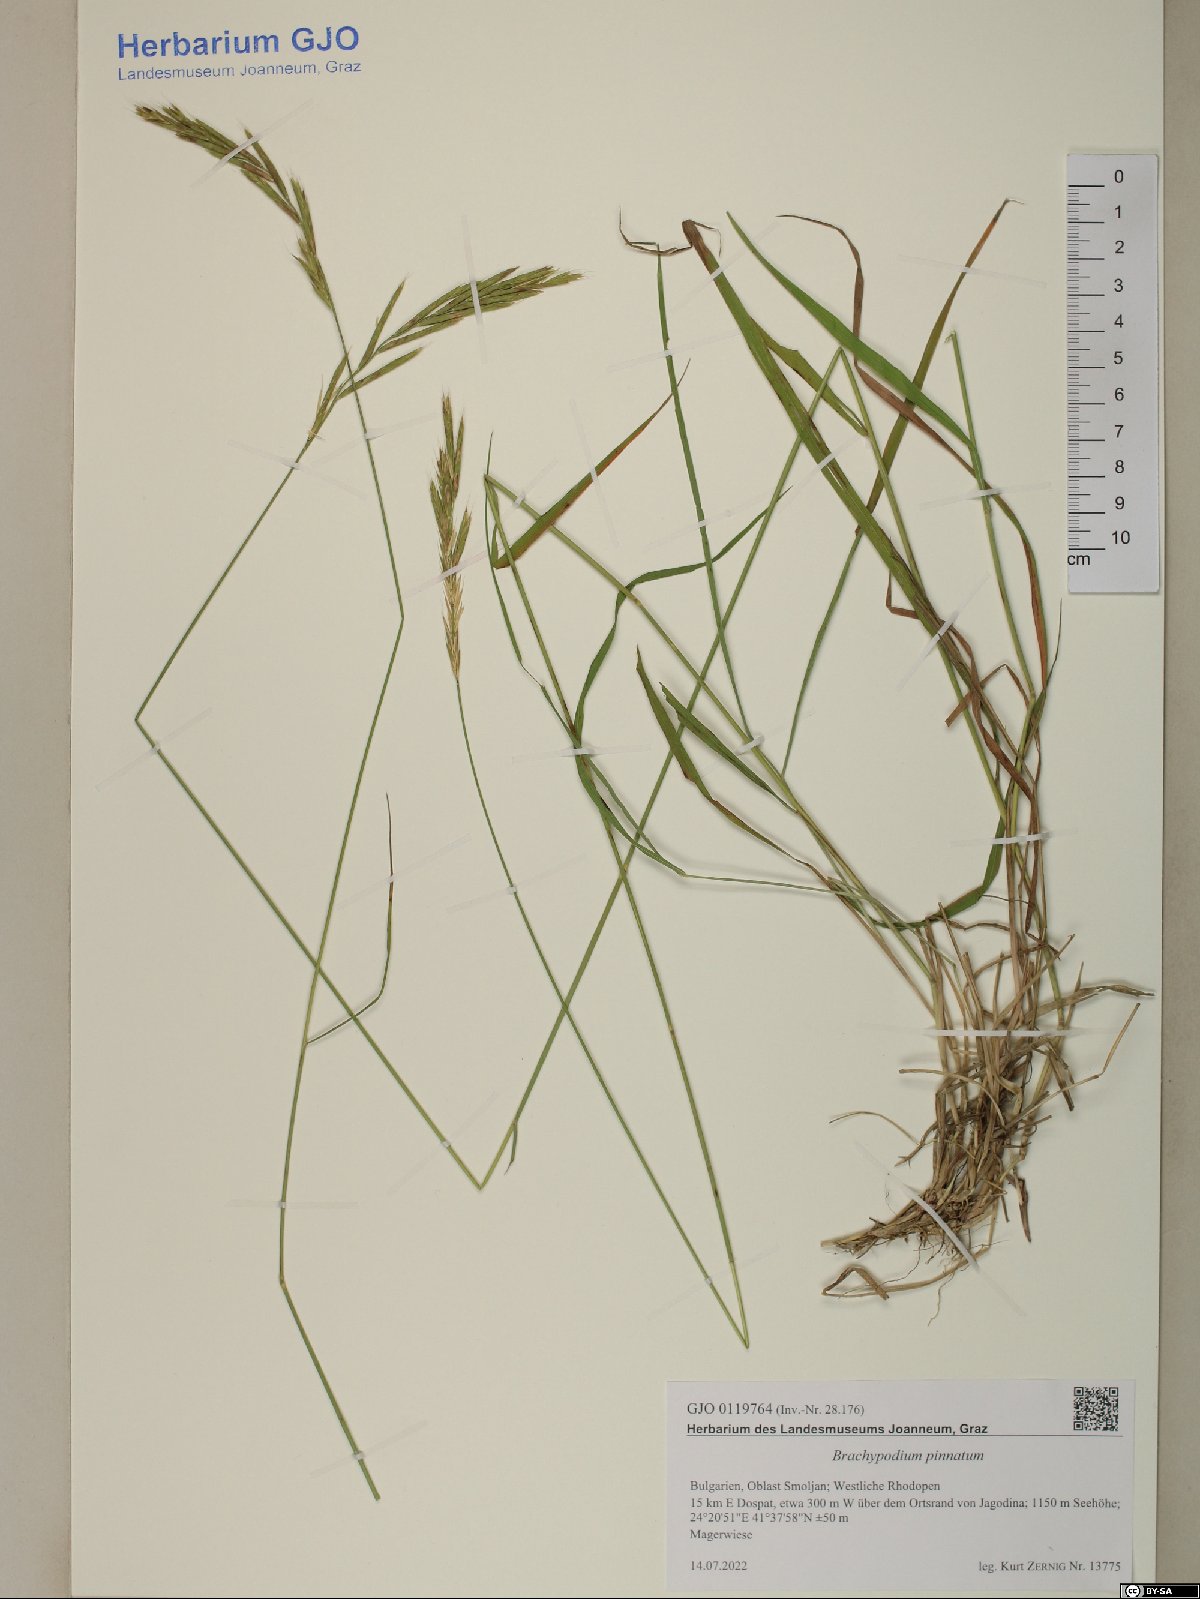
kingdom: Plantae
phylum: Tracheophyta
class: Liliopsida
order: Poales
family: Poaceae
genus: Brachypodium
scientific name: Brachypodium pinnatum
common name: Tor grass
